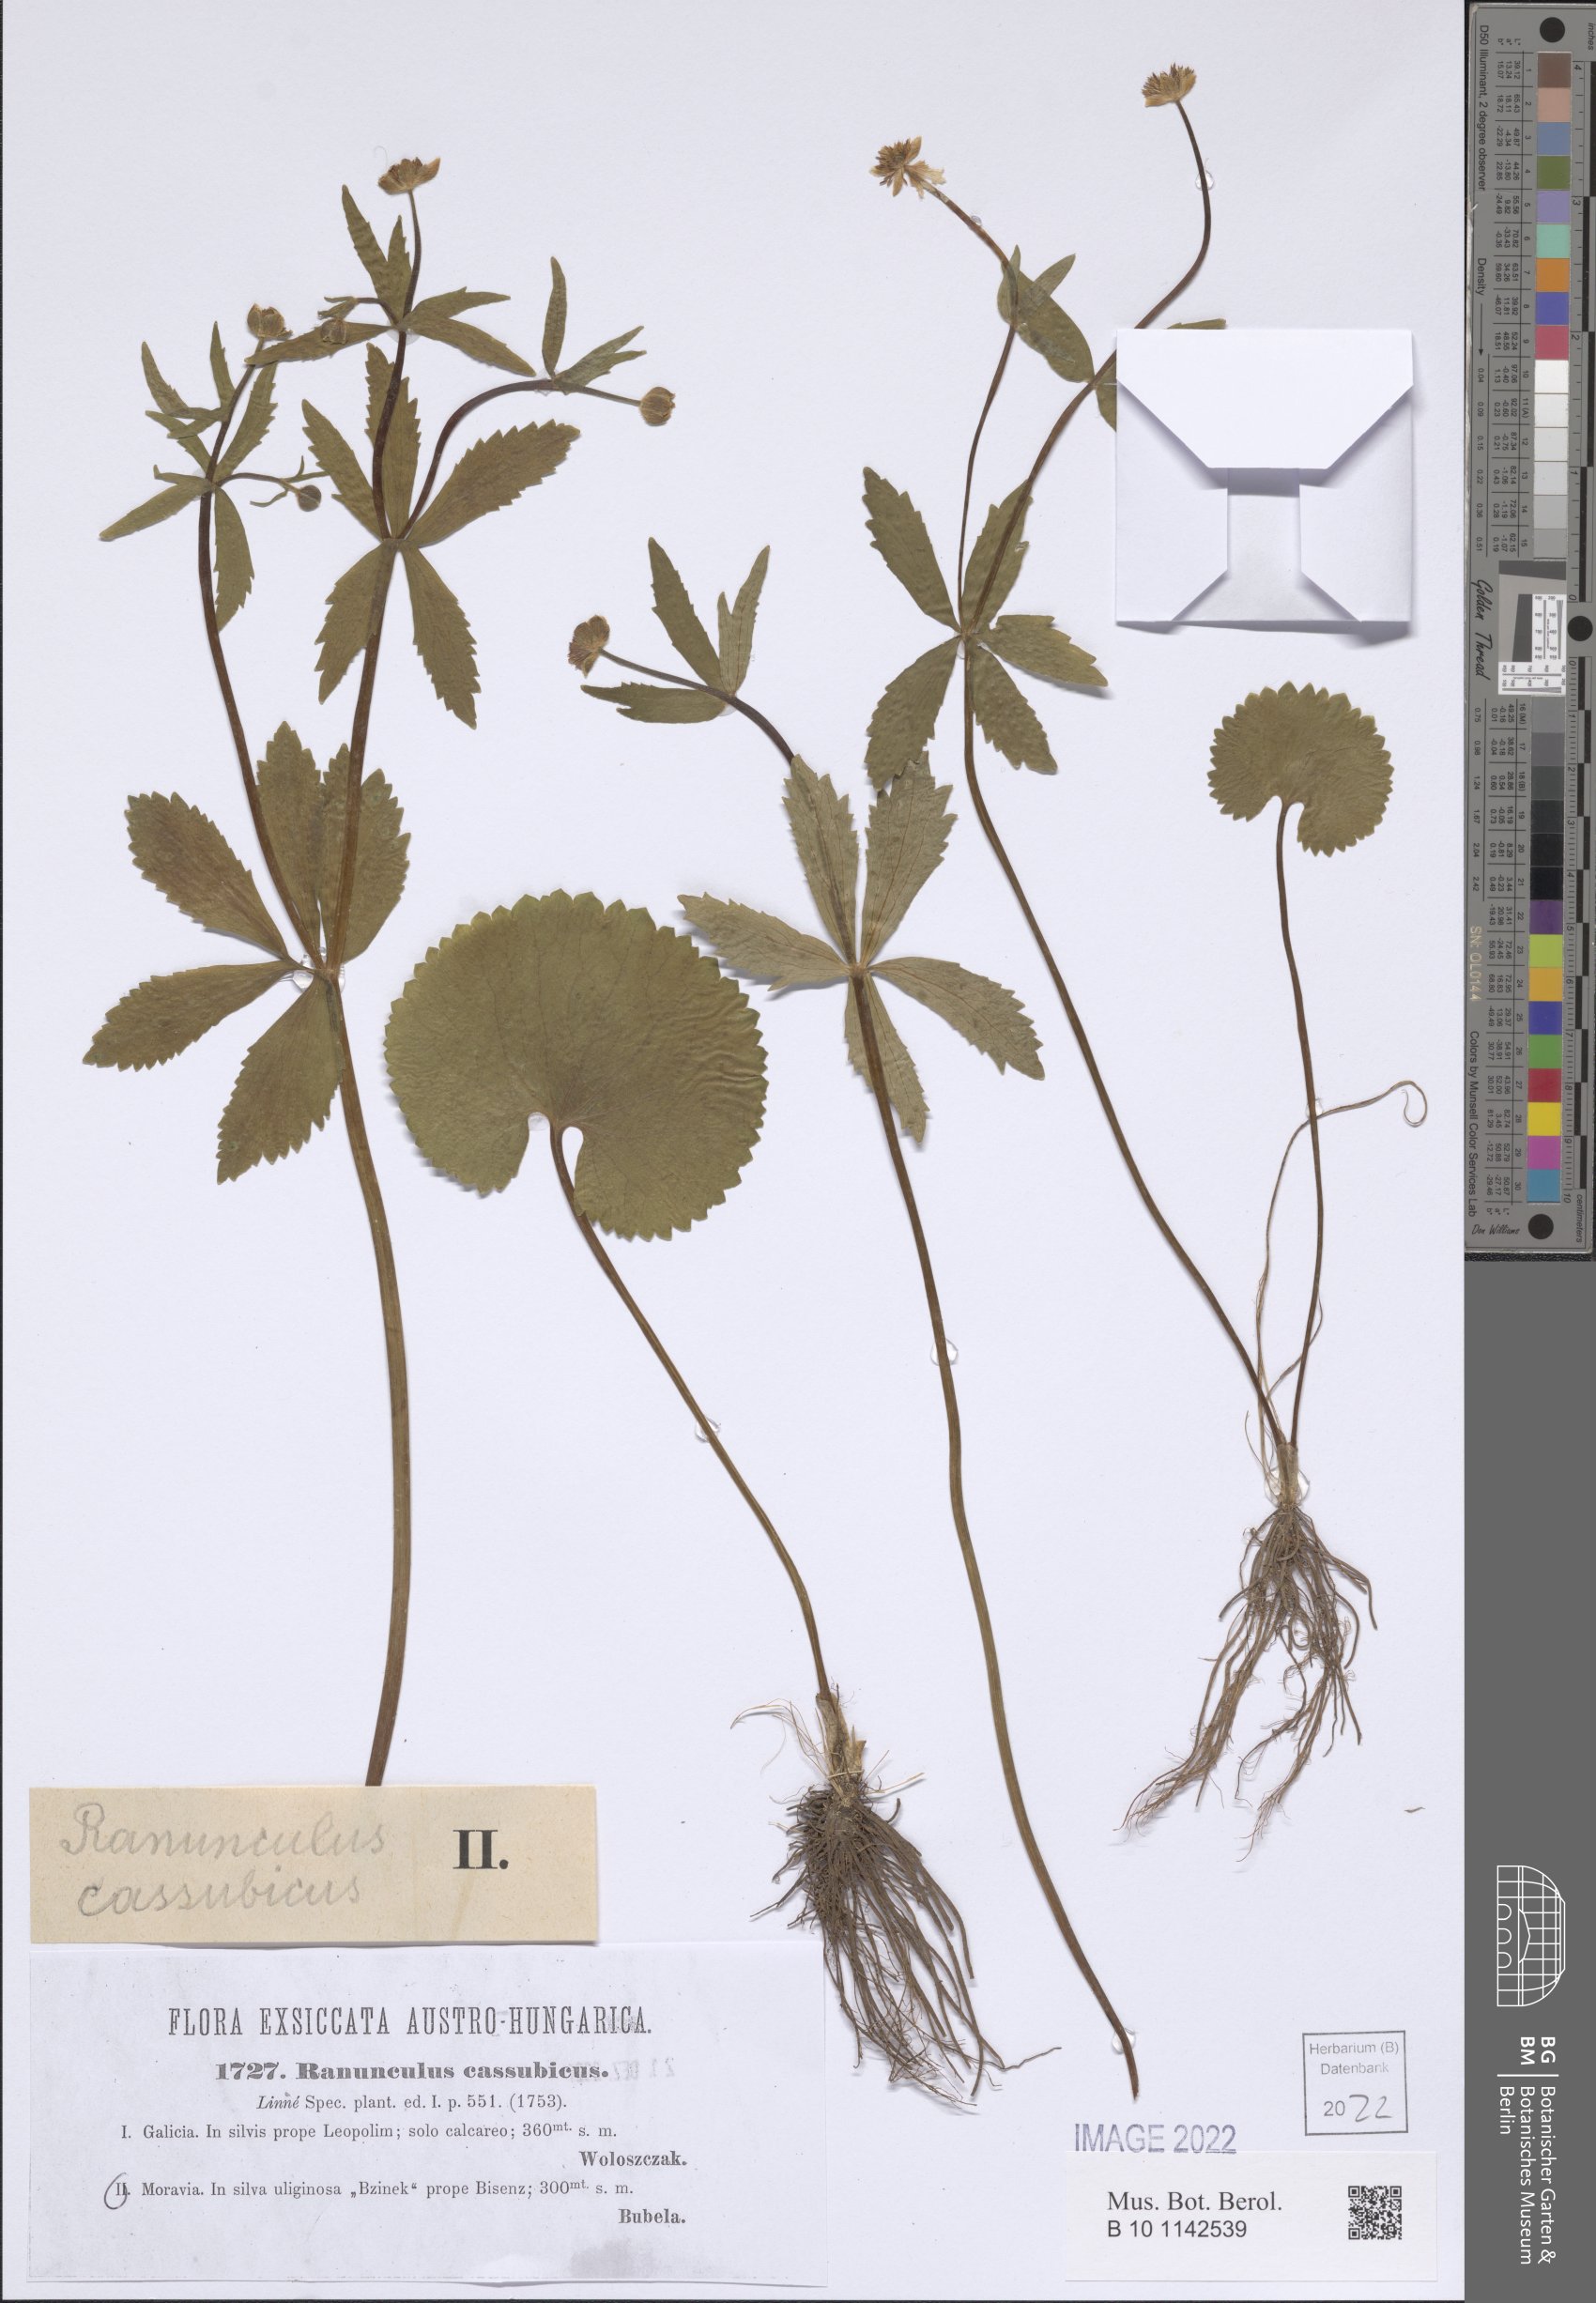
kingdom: Plantae
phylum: Tracheophyta
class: Magnoliopsida
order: Ranunculales
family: Ranunculaceae
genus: Ranunculus
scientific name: Ranunculus cassubicus
